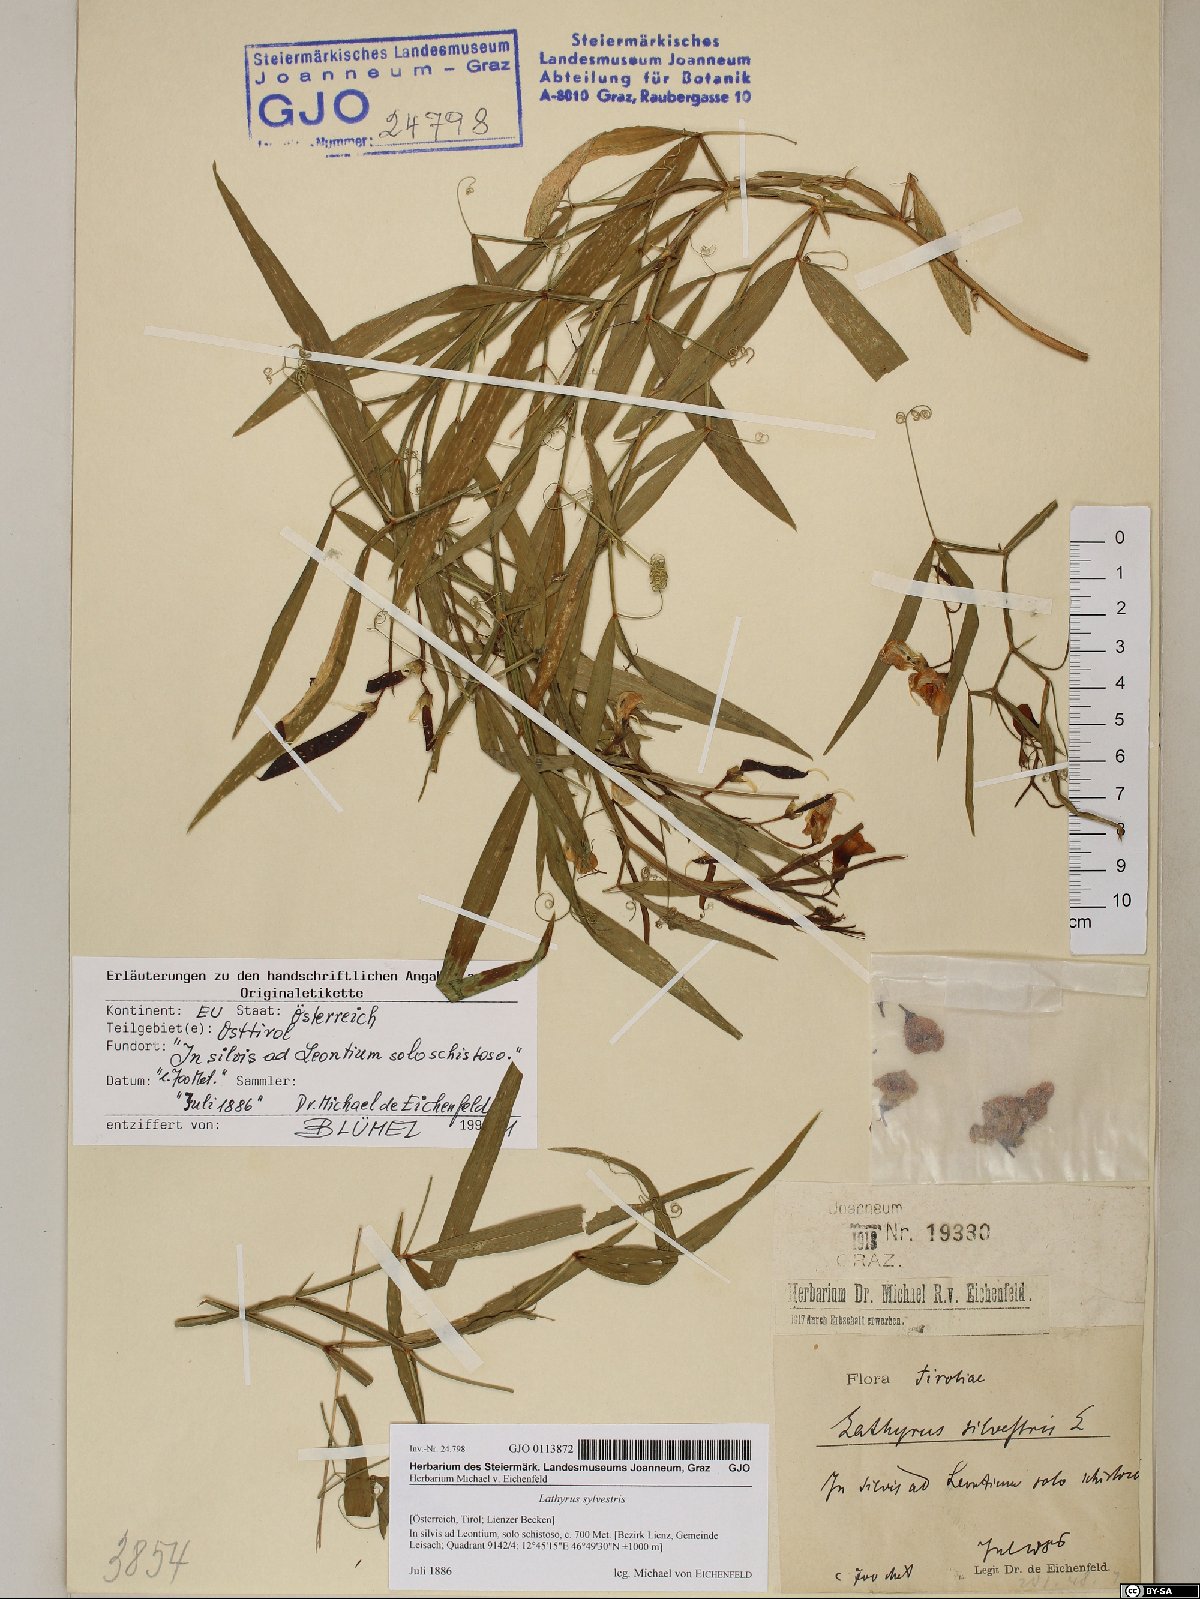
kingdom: Plantae
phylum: Tracheophyta
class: Magnoliopsida
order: Fabales
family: Fabaceae
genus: Lathyrus
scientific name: Lathyrus sylvestris
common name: Flat pea
